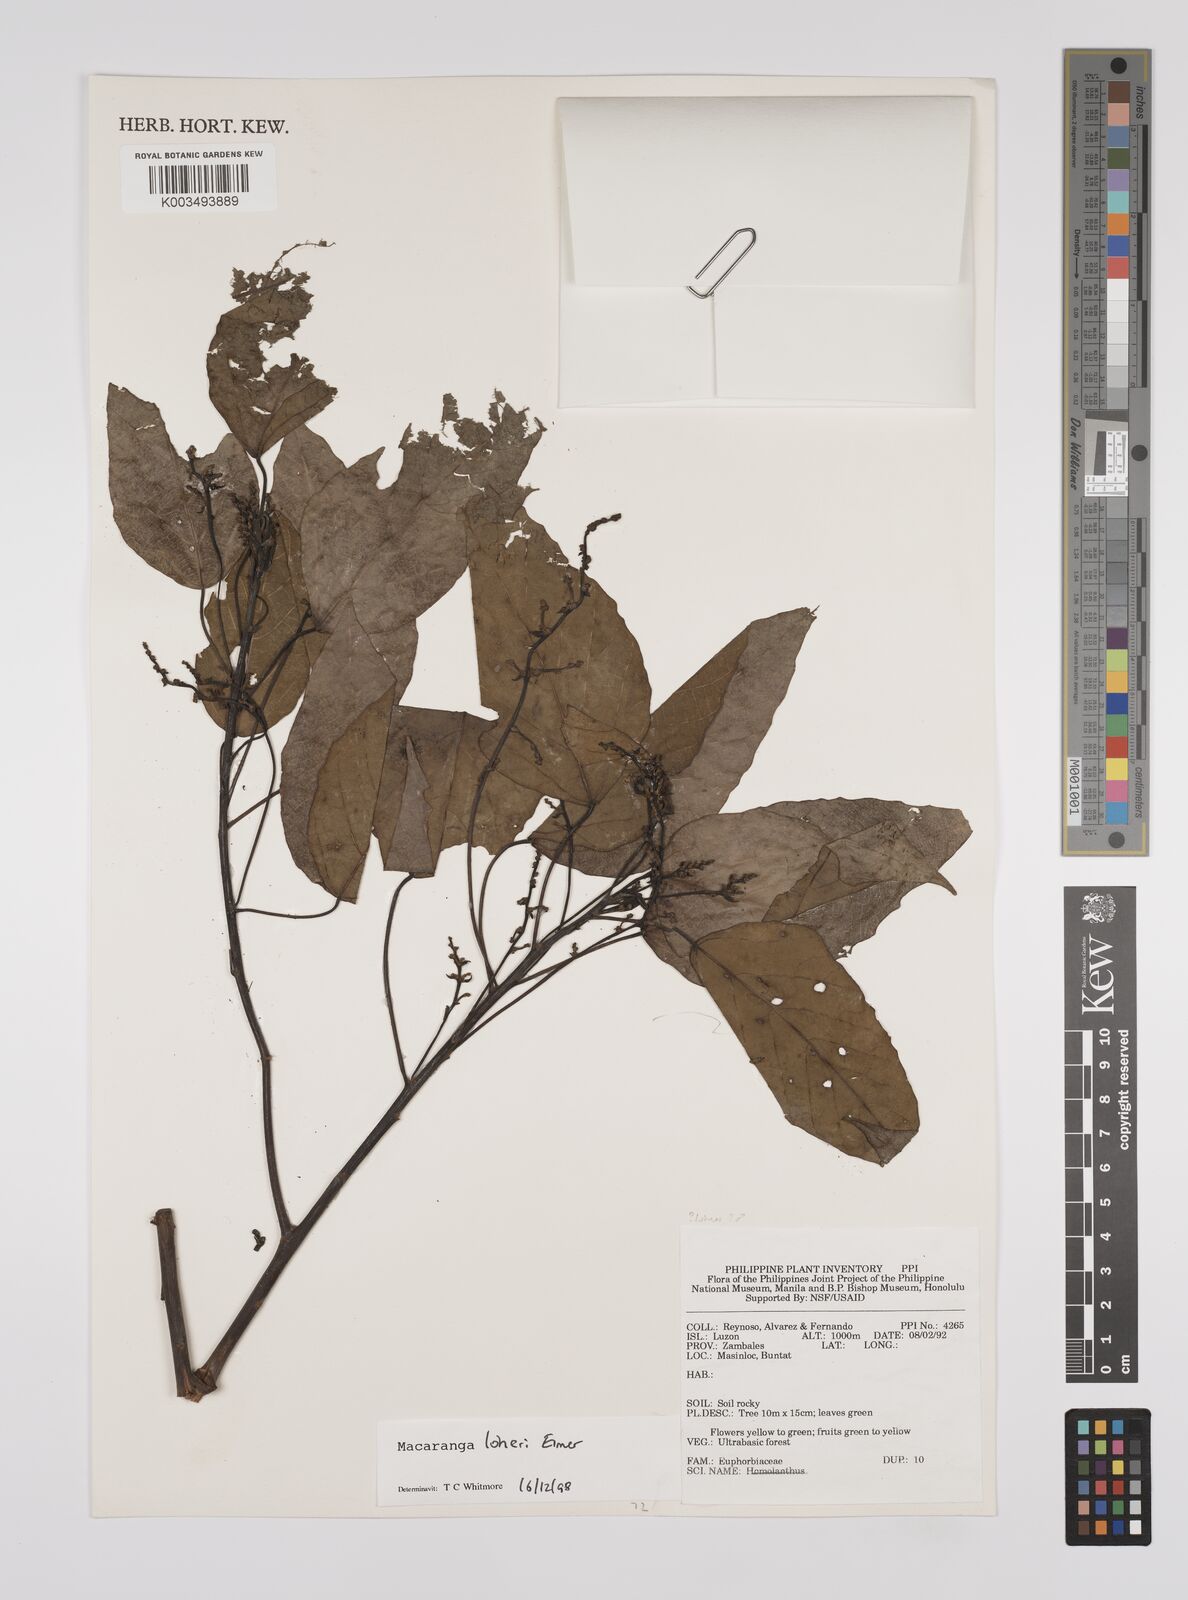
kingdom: Plantae
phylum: Tracheophyta
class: Magnoliopsida
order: Malpighiales
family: Euphorbiaceae
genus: Macaranga
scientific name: Macaranga loheri
